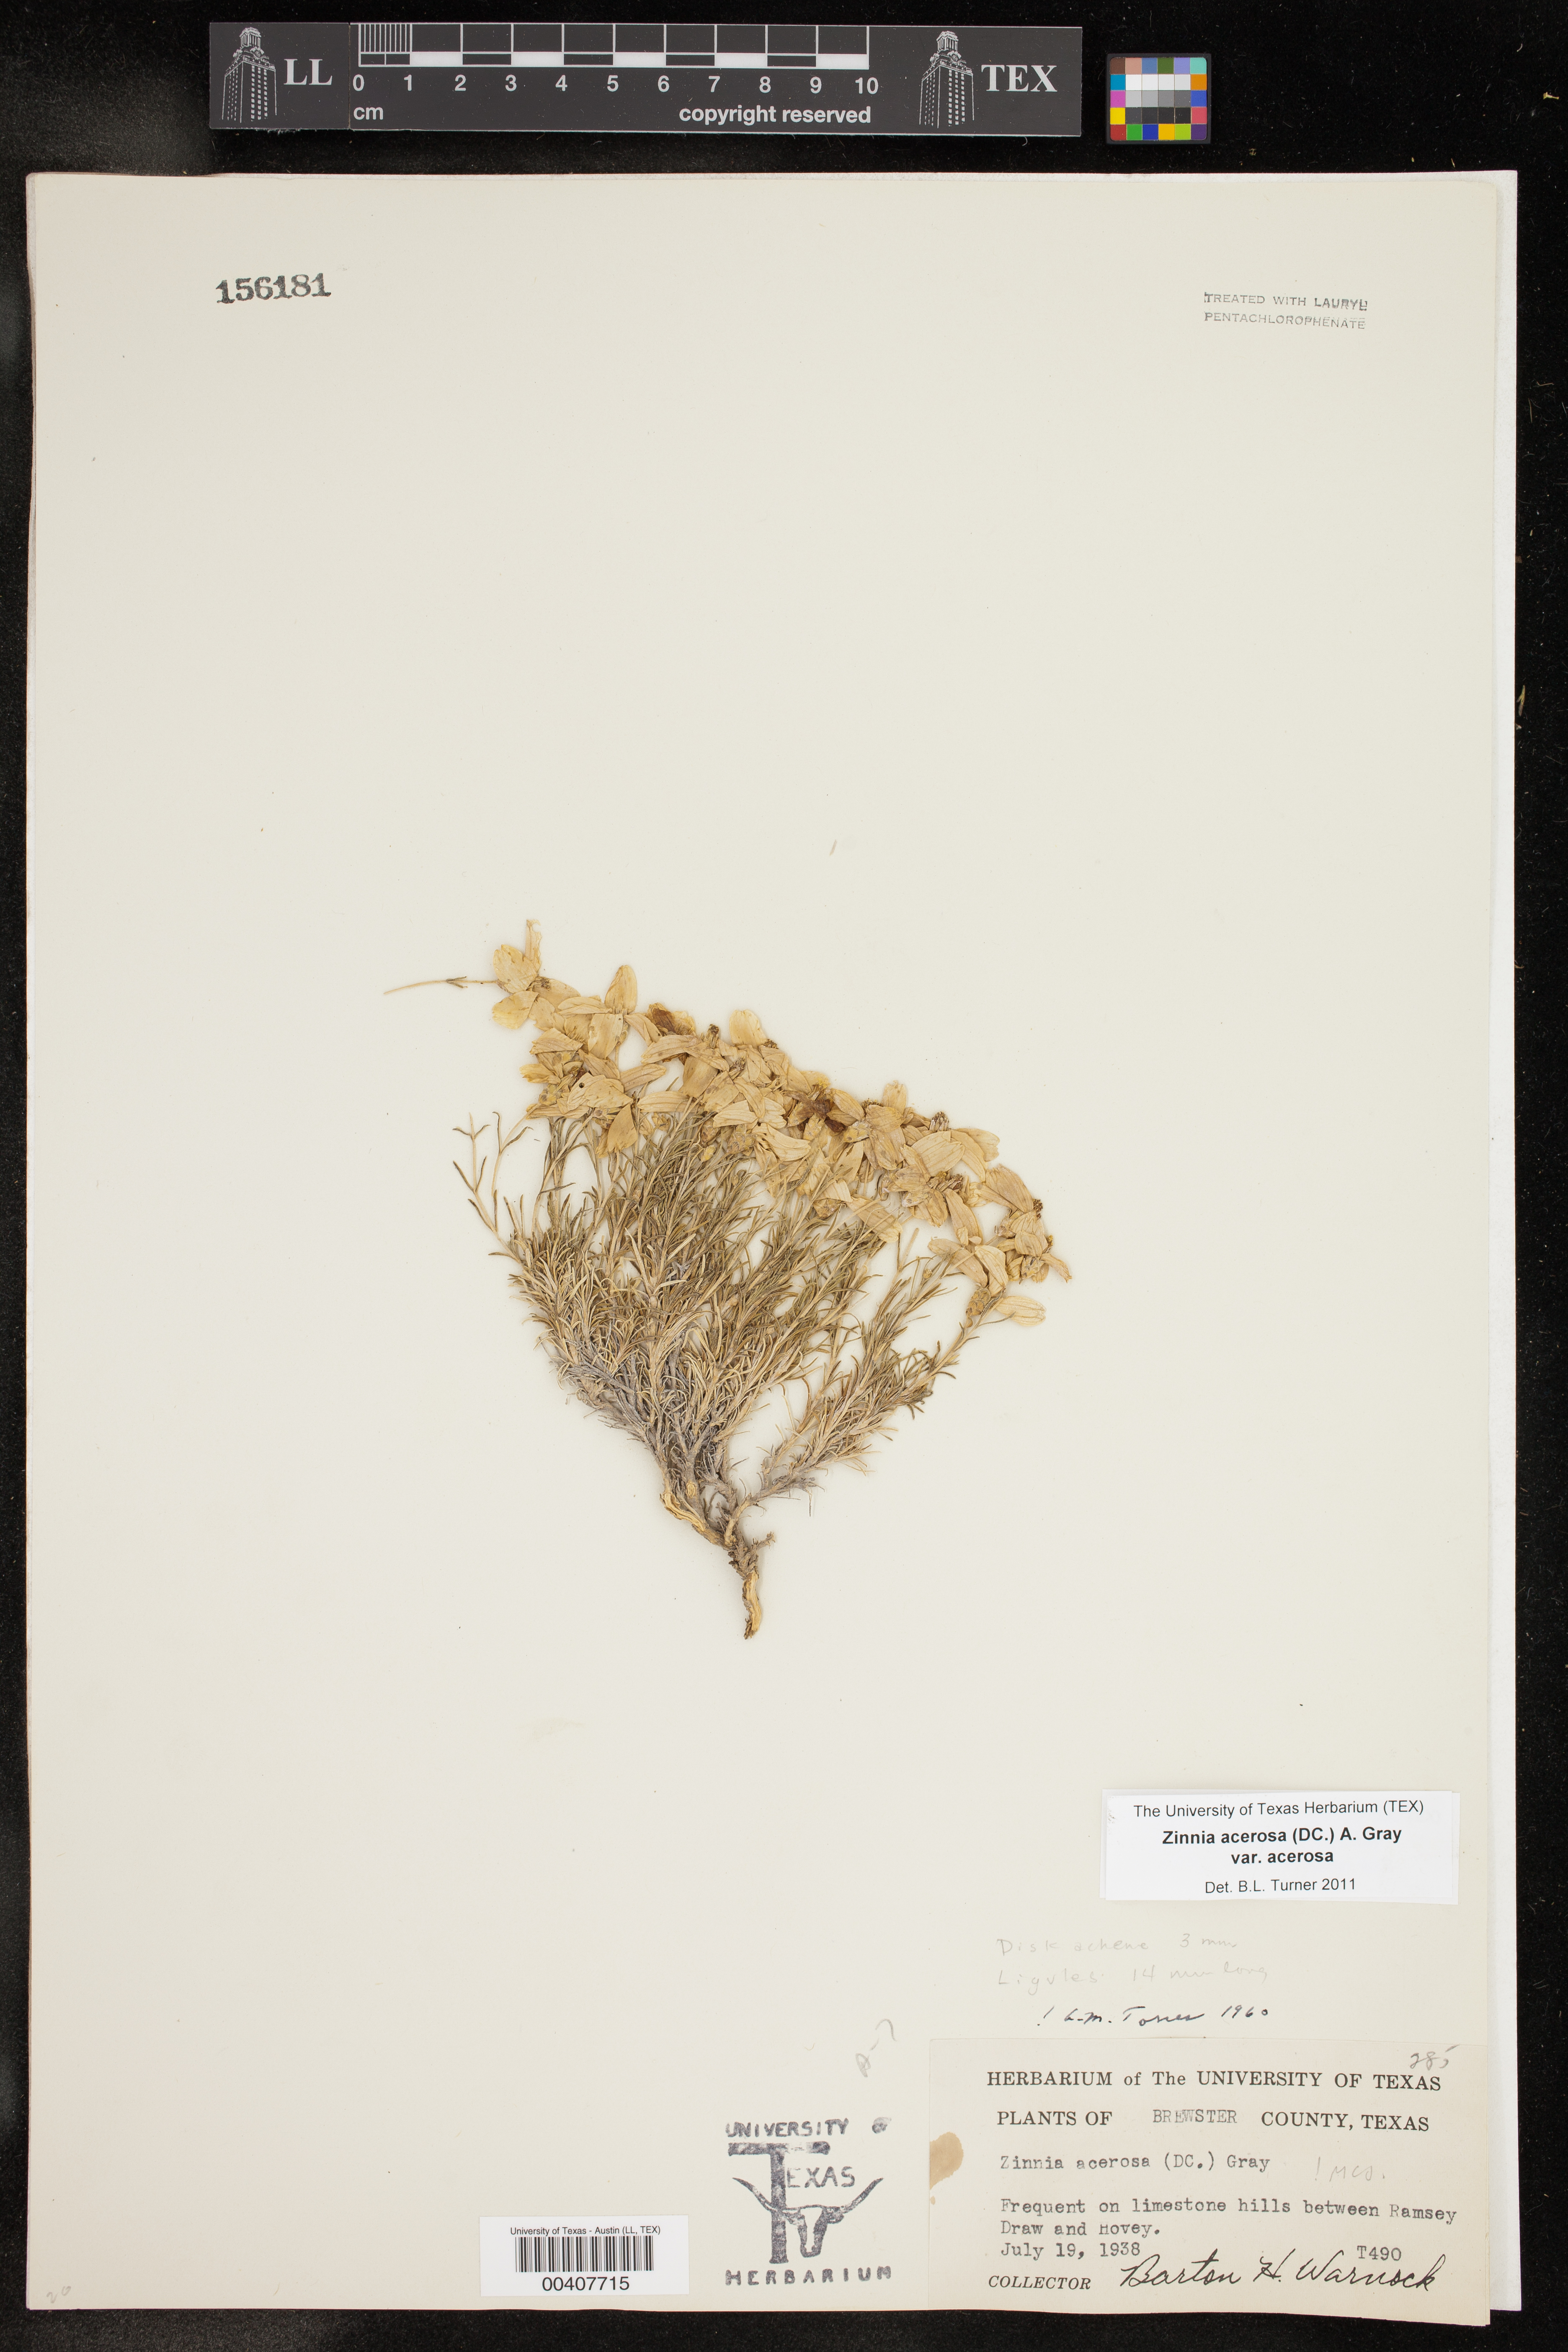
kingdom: Plantae
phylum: Tracheophyta
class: Magnoliopsida
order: Asterales
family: Asteraceae
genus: Zinnia
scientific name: Zinnia acerosa
